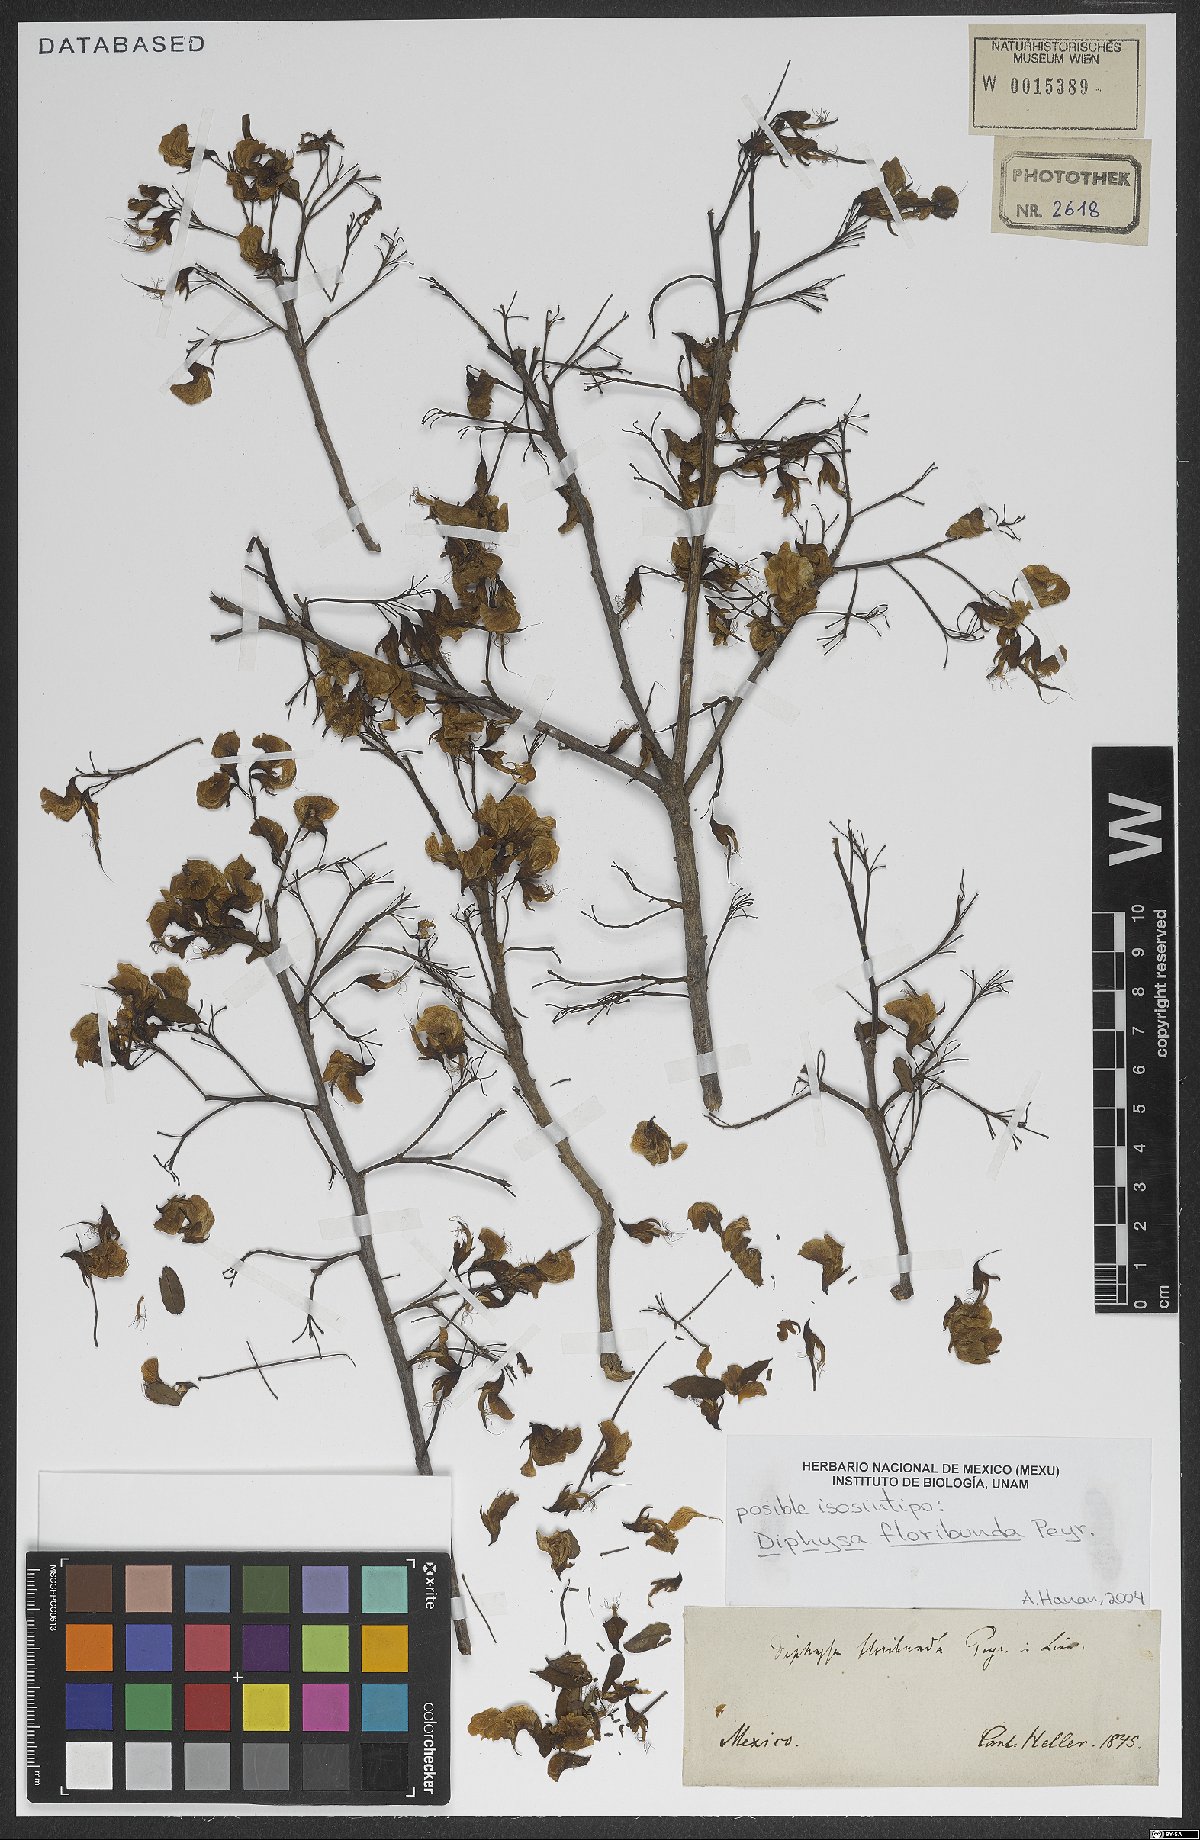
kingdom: Plantae
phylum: Tracheophyta
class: Magnoliopsida
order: Fabales
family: Fabaceae
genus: Diphysa
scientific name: Diphysa floribunda
